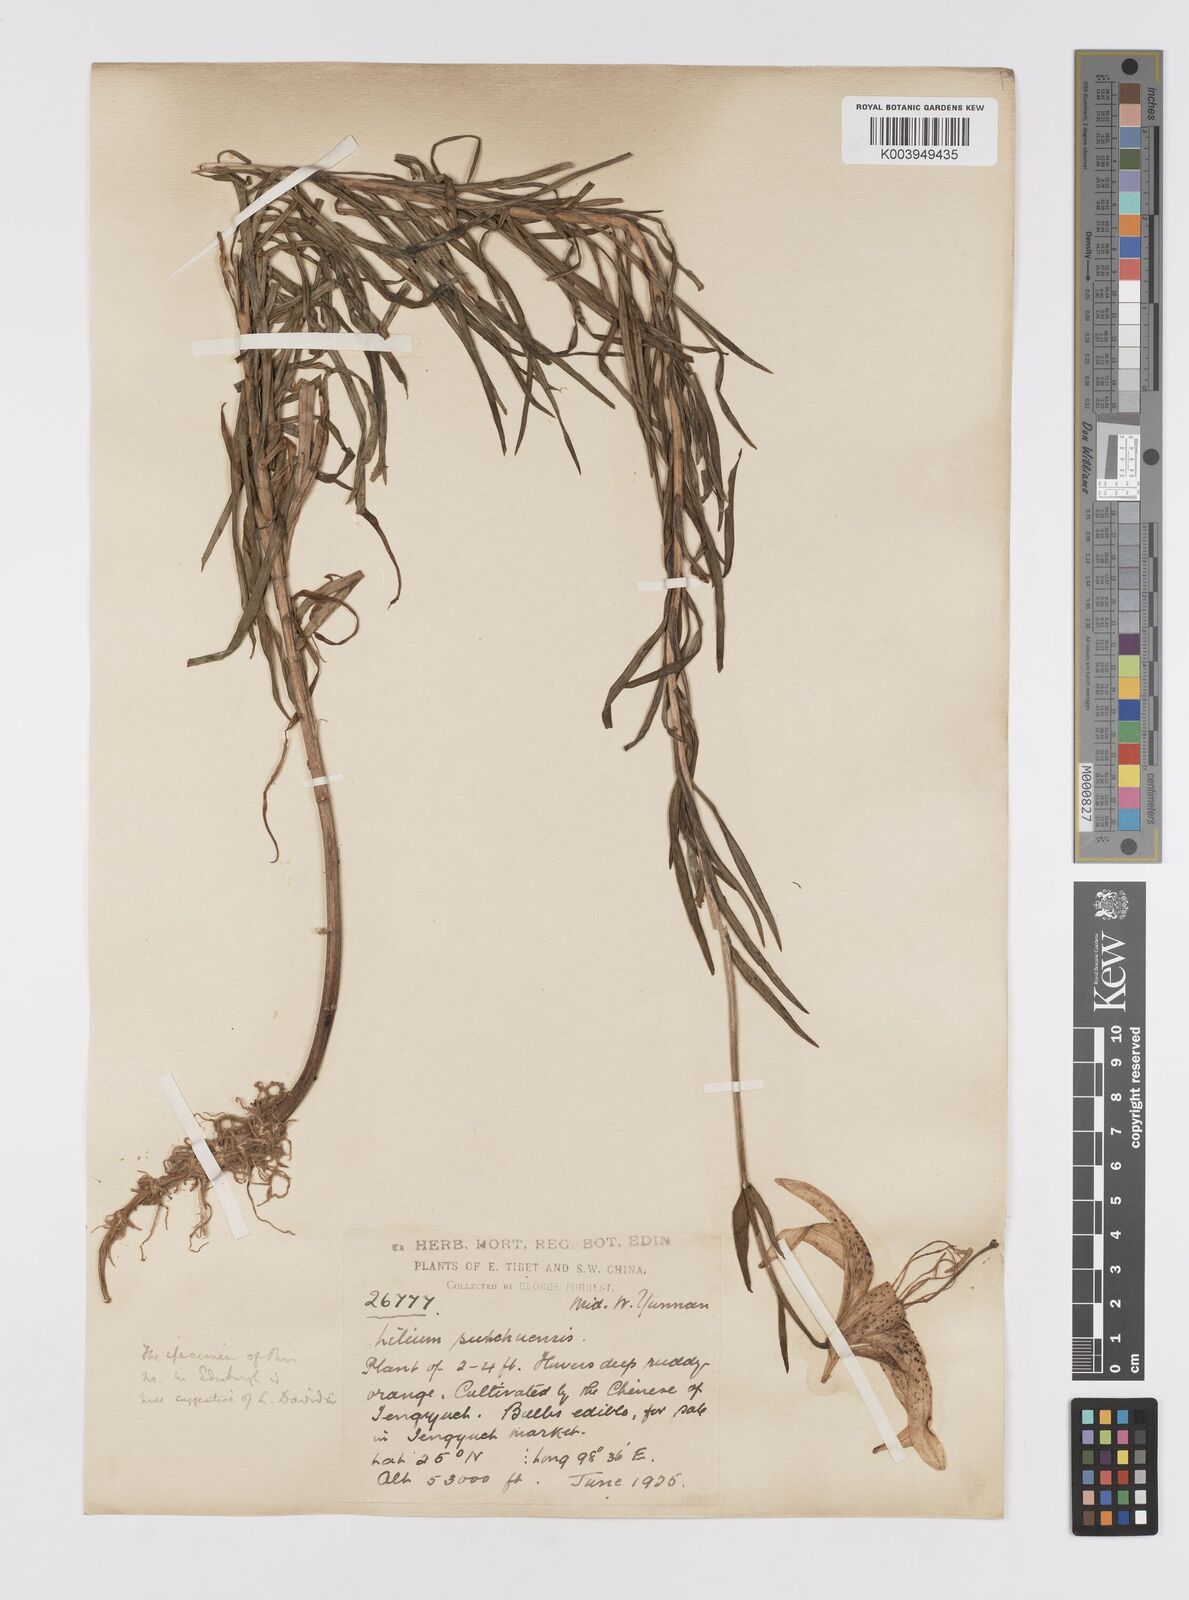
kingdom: Plantae
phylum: Tracheophyta
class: Liliopsida
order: Liliales
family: Liliaceae
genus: Lilium
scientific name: Lilium davidii
